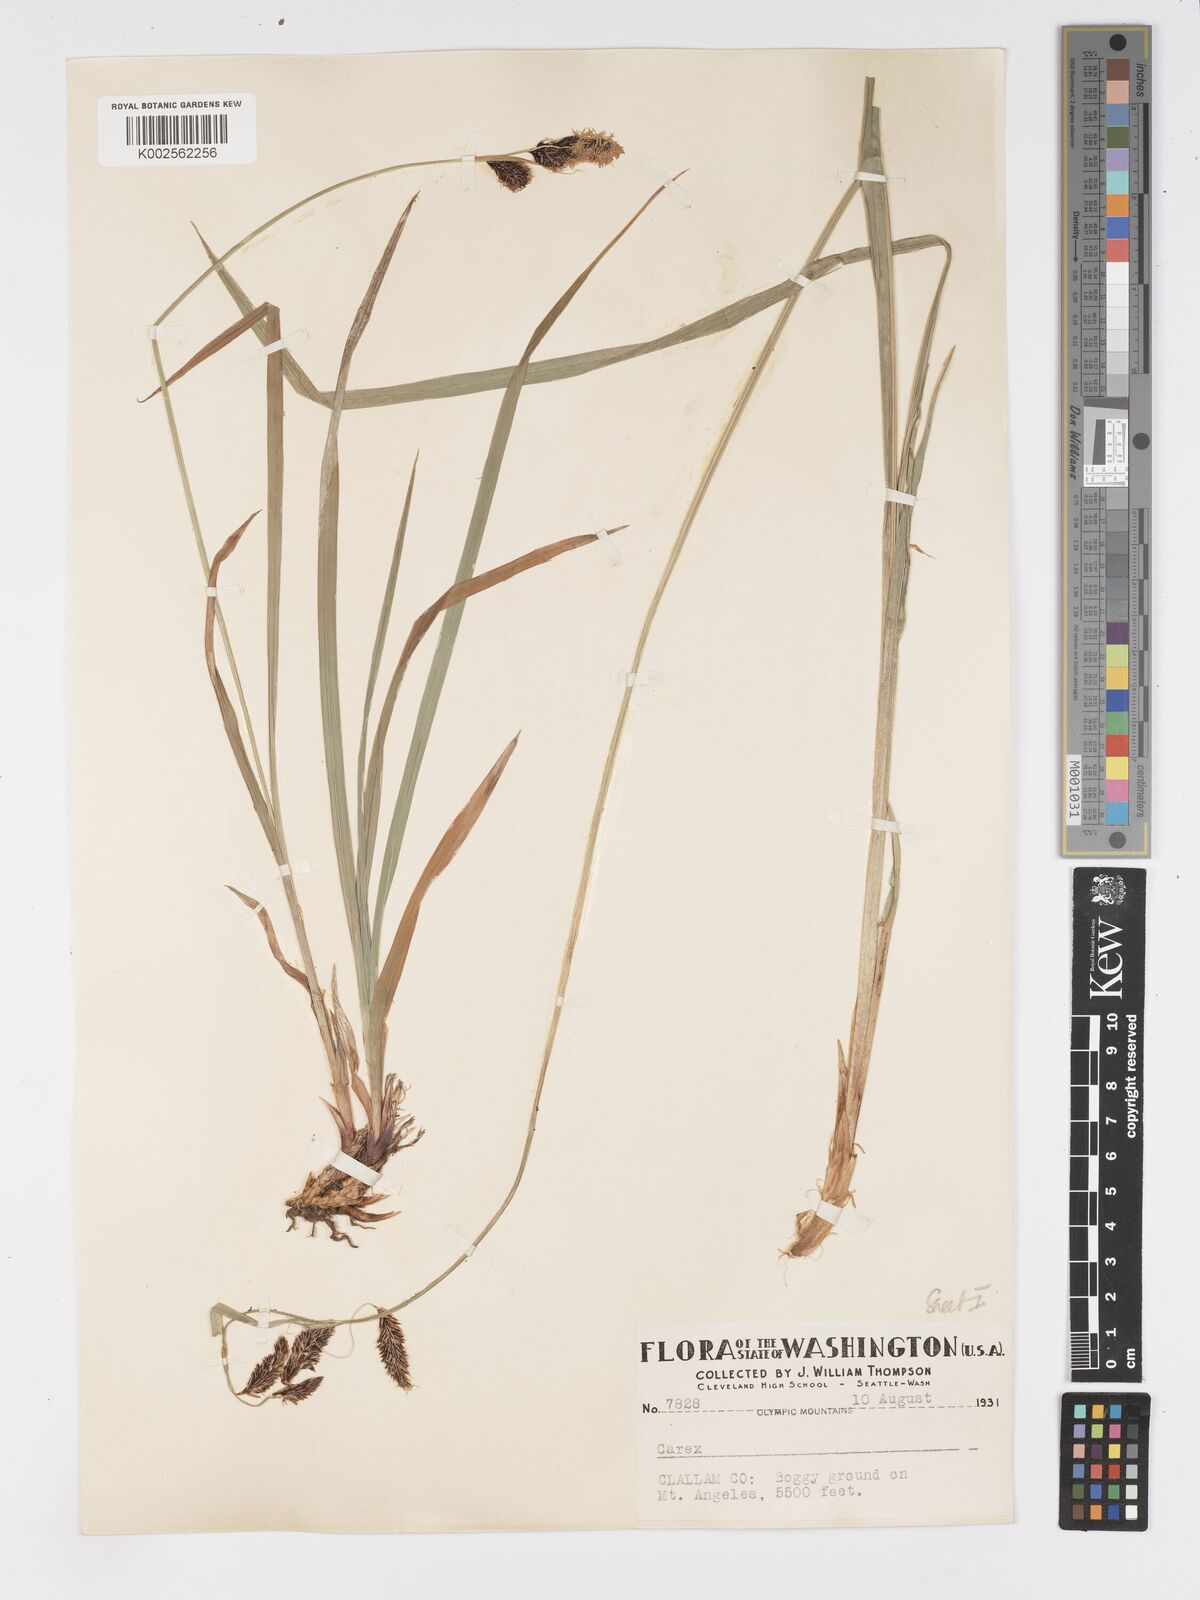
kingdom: Plantae
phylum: Tracheophyta
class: Liliopsida
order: Poales
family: Cyperaceae
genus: Carex
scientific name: Carex nebrascensis
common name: Nebraska sedge
